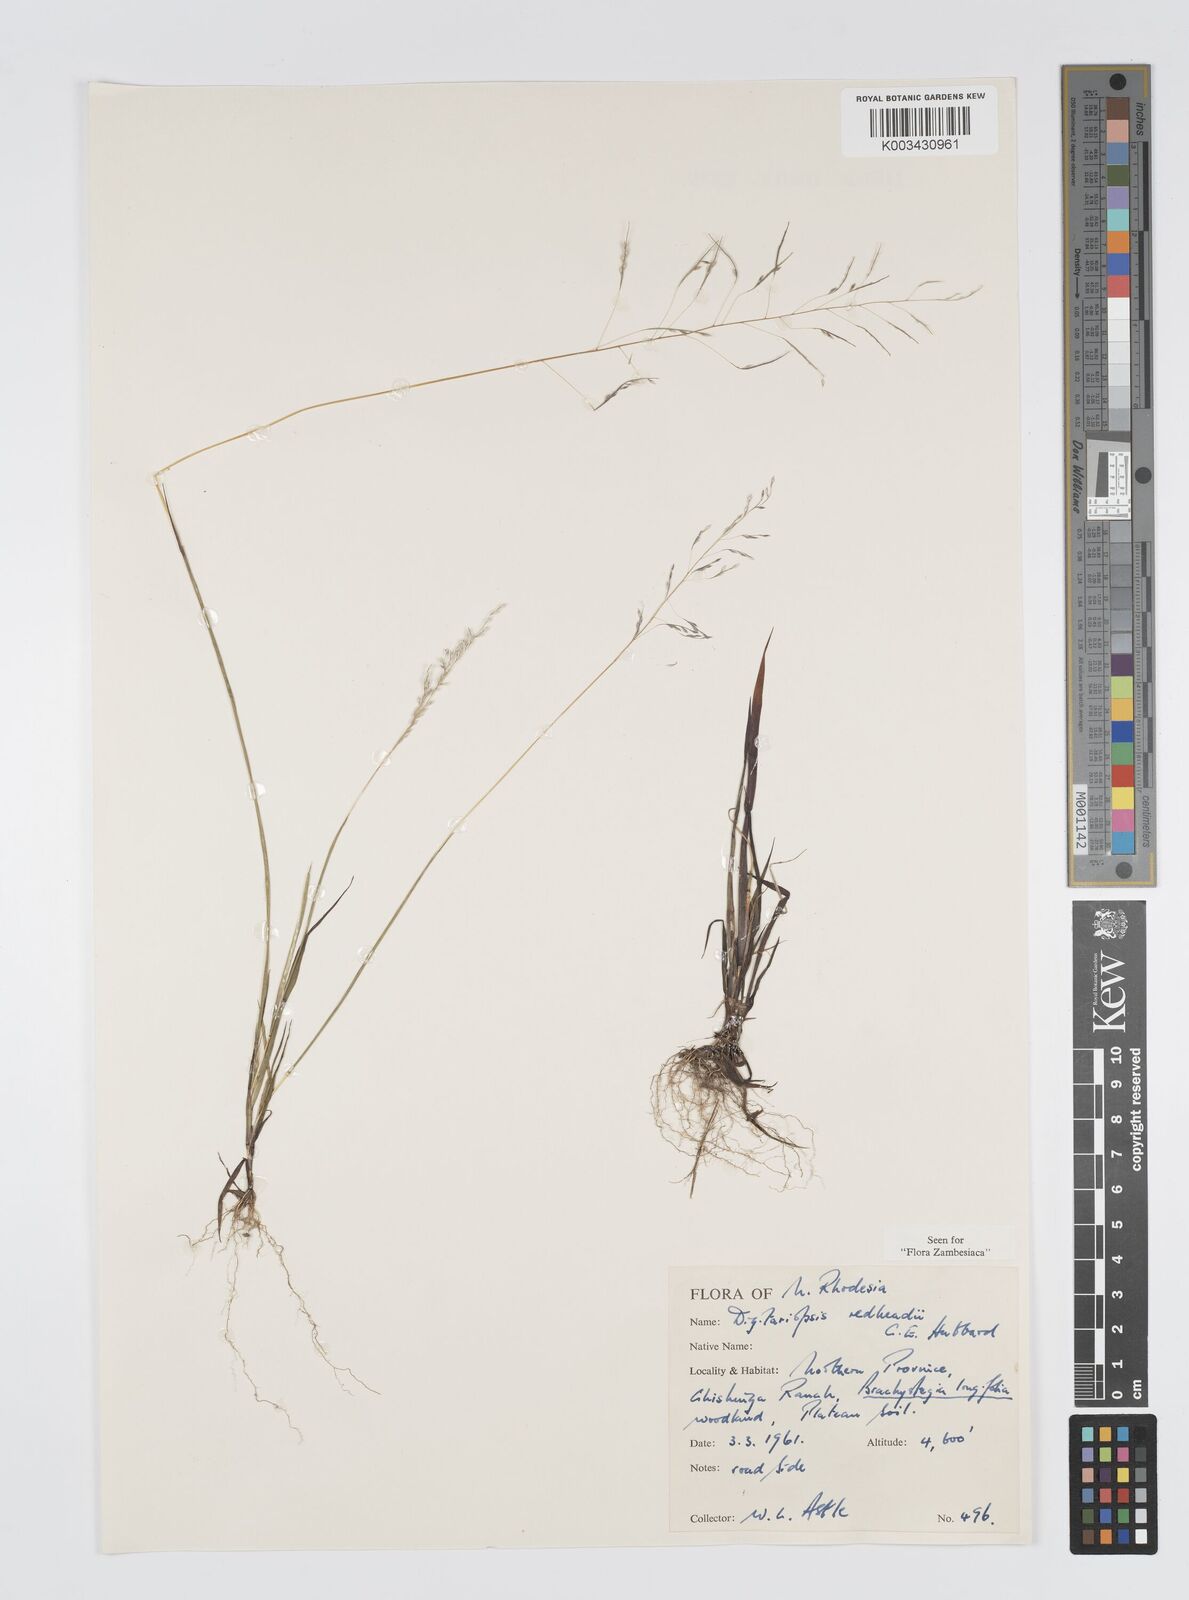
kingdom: Plantae
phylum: Tracheophyta
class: Liliopsida
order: Poales
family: Poaceae
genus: Digitaria
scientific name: Digitaria redheadii
